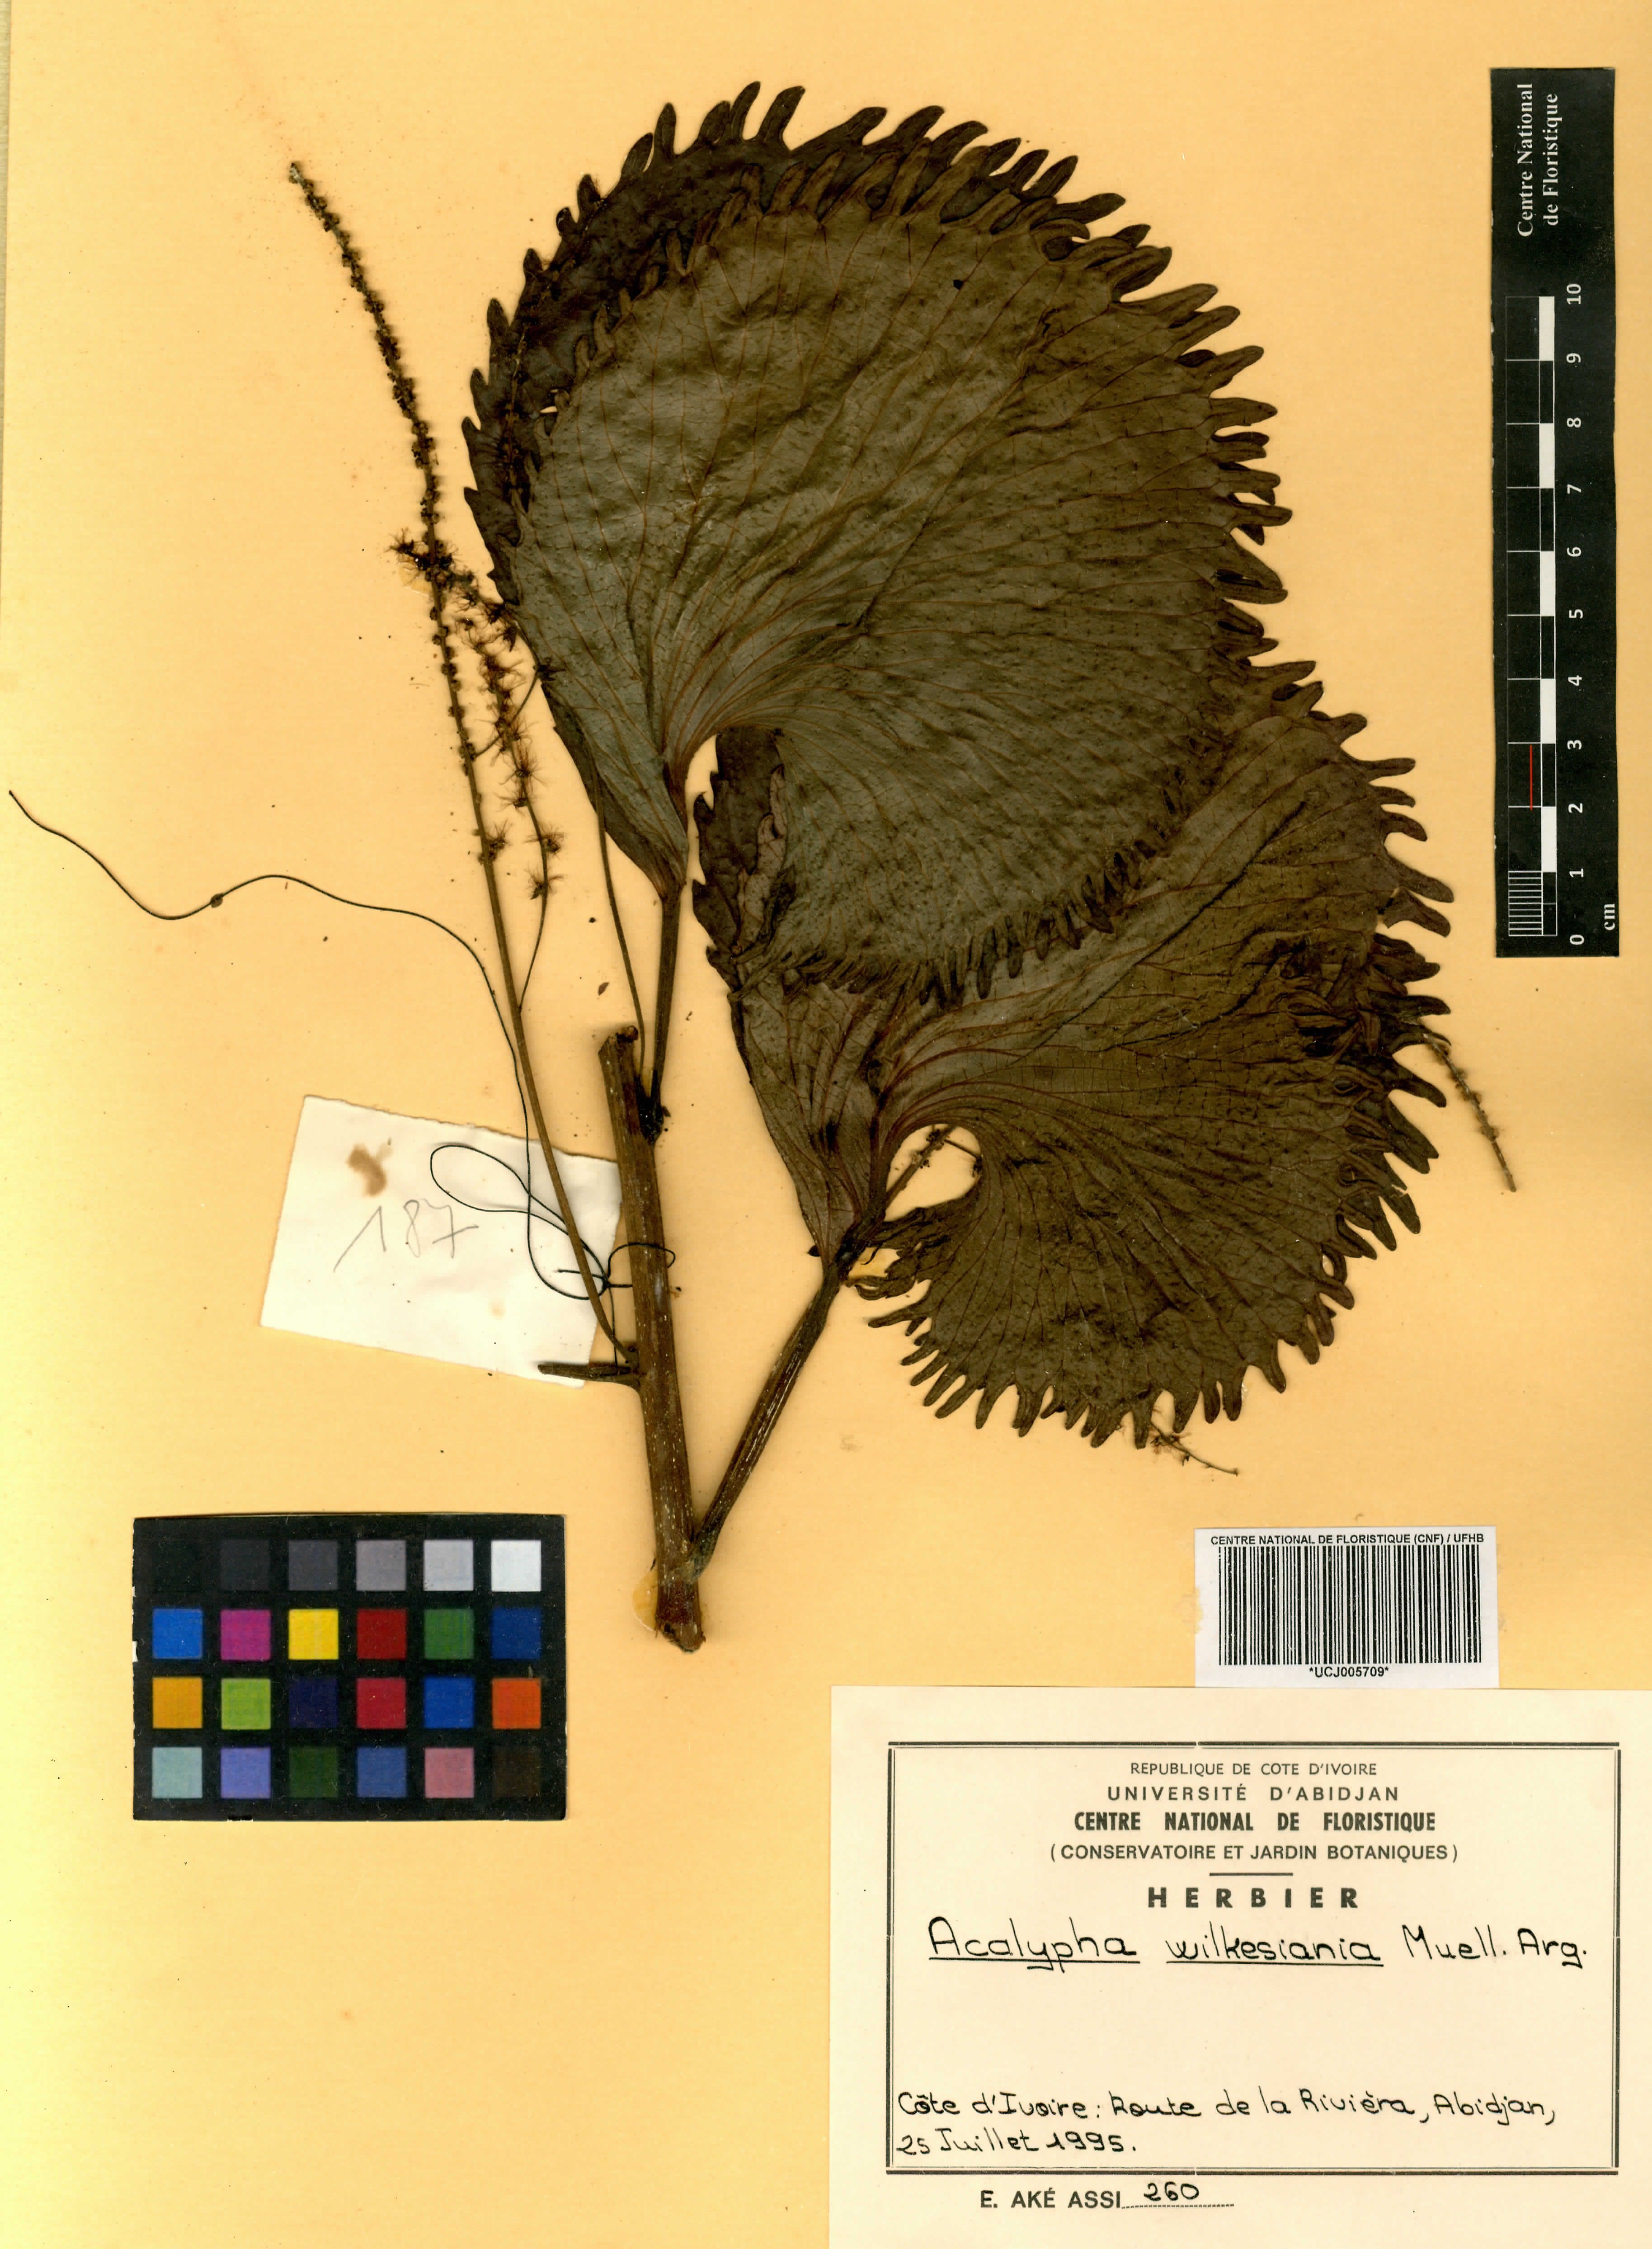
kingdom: Plantae
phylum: Tracheophyta
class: Magnoliopsida
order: Malpighiales
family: Euphorbiaceae
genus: Acalypha
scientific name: Acalypha wilkesiana
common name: Jacob's coat
